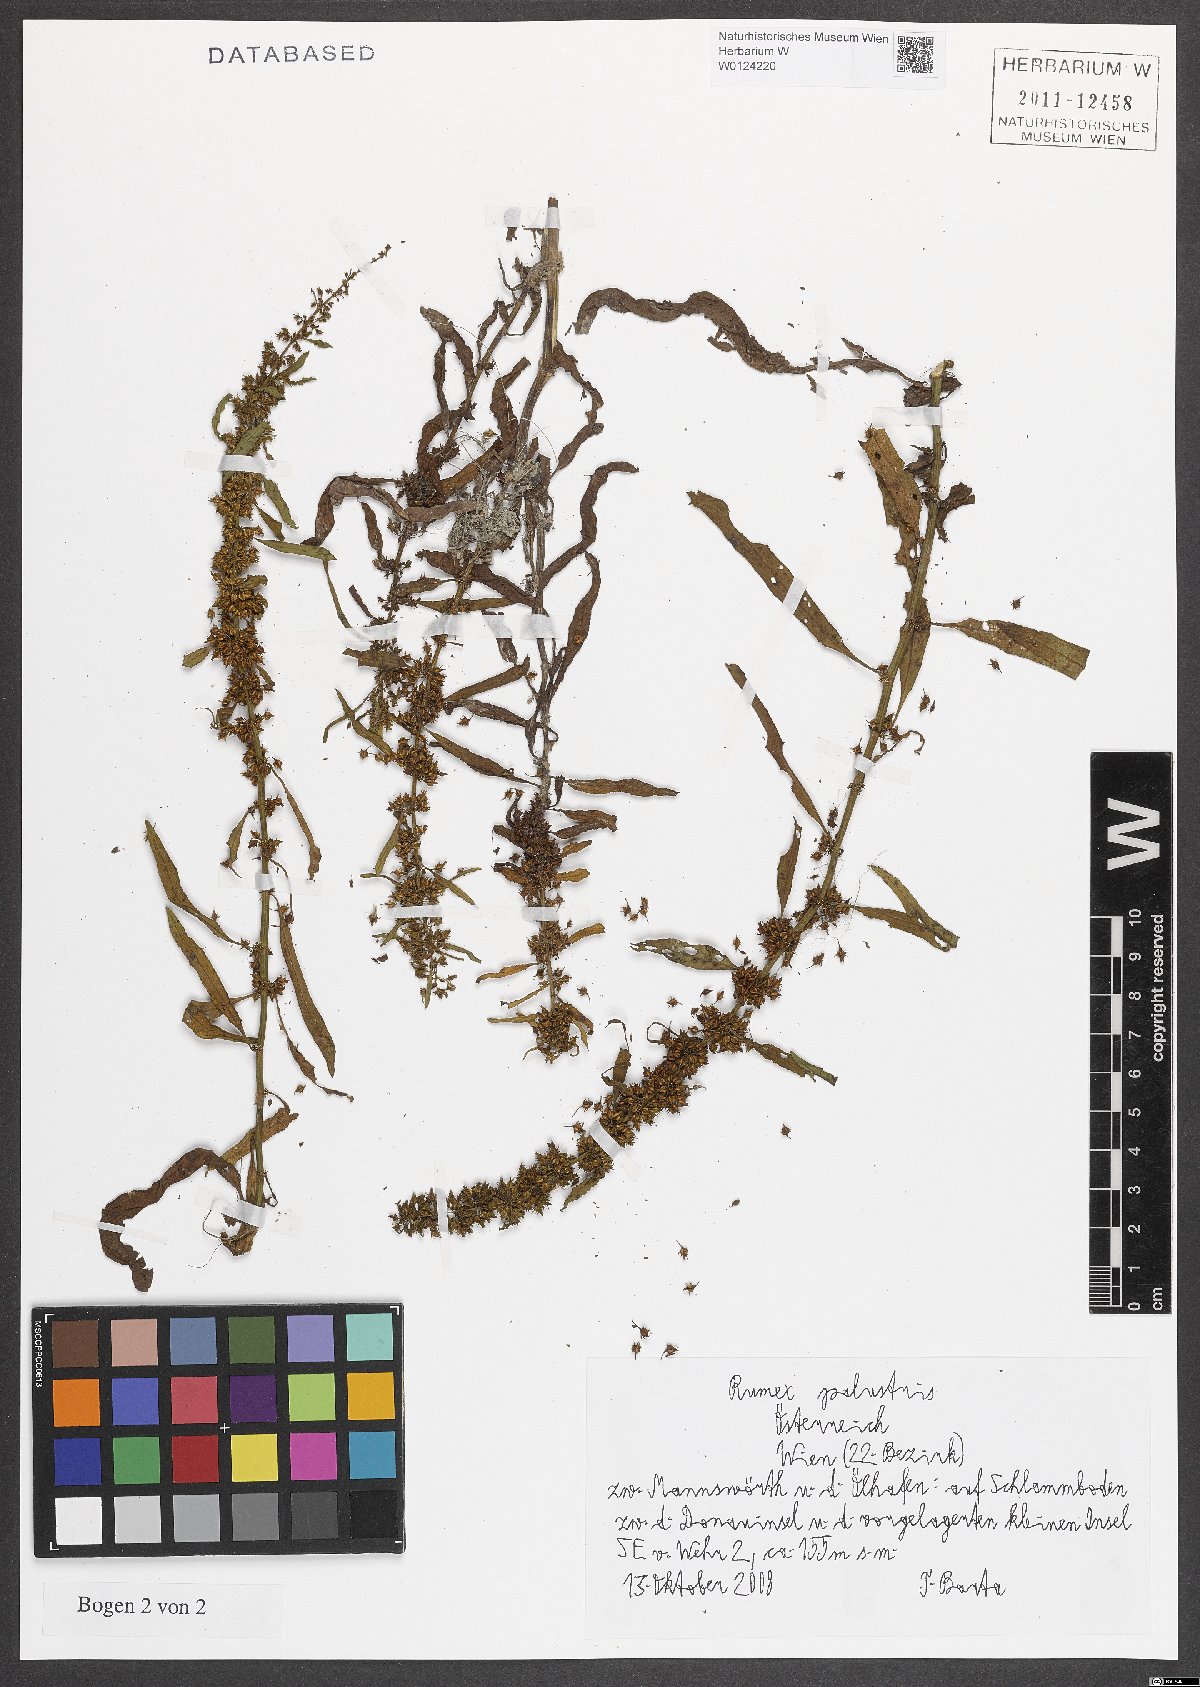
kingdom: Plantae
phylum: Tracheophyta
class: Magnoliopsida
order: Caryophyllales
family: Polygonaceae
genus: Rumex
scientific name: Rumex palustris
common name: Marsh dock
